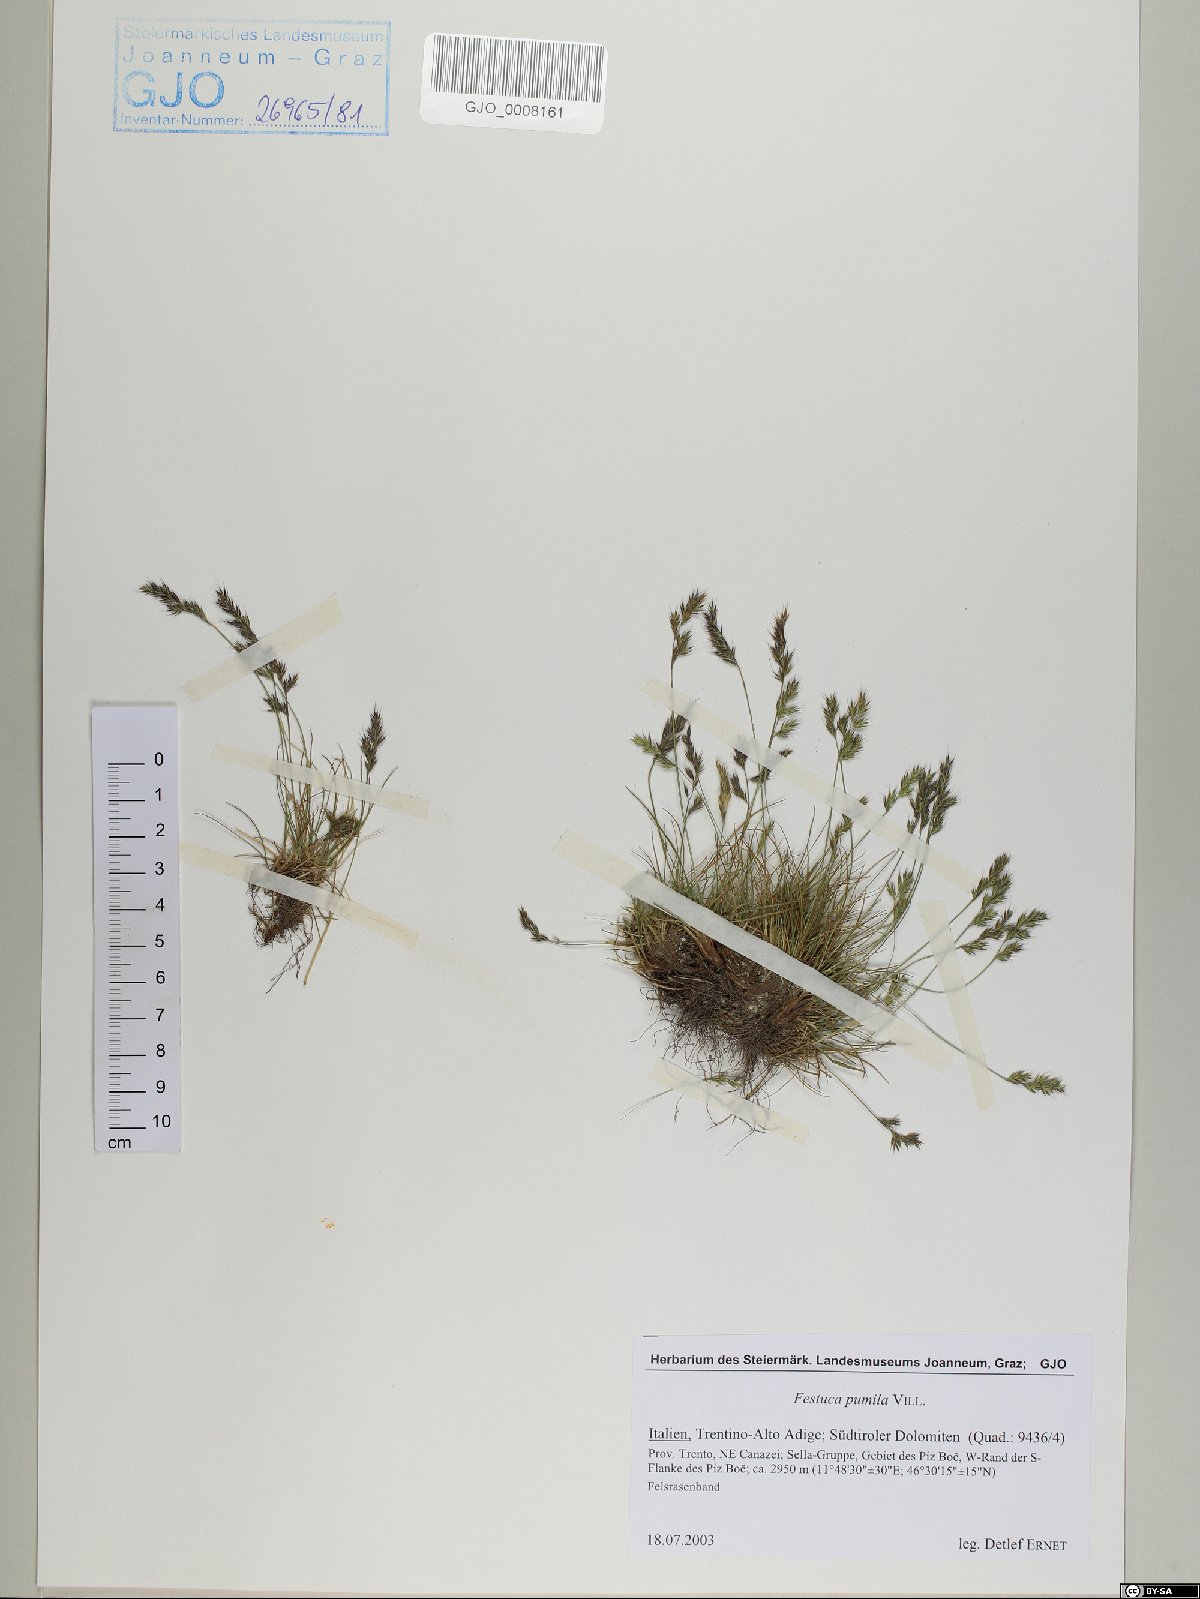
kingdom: Plantae
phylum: Tracheophyta
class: Liliopsida
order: Poales
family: Poaceae
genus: Festuca
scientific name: Festuca quadriflora
